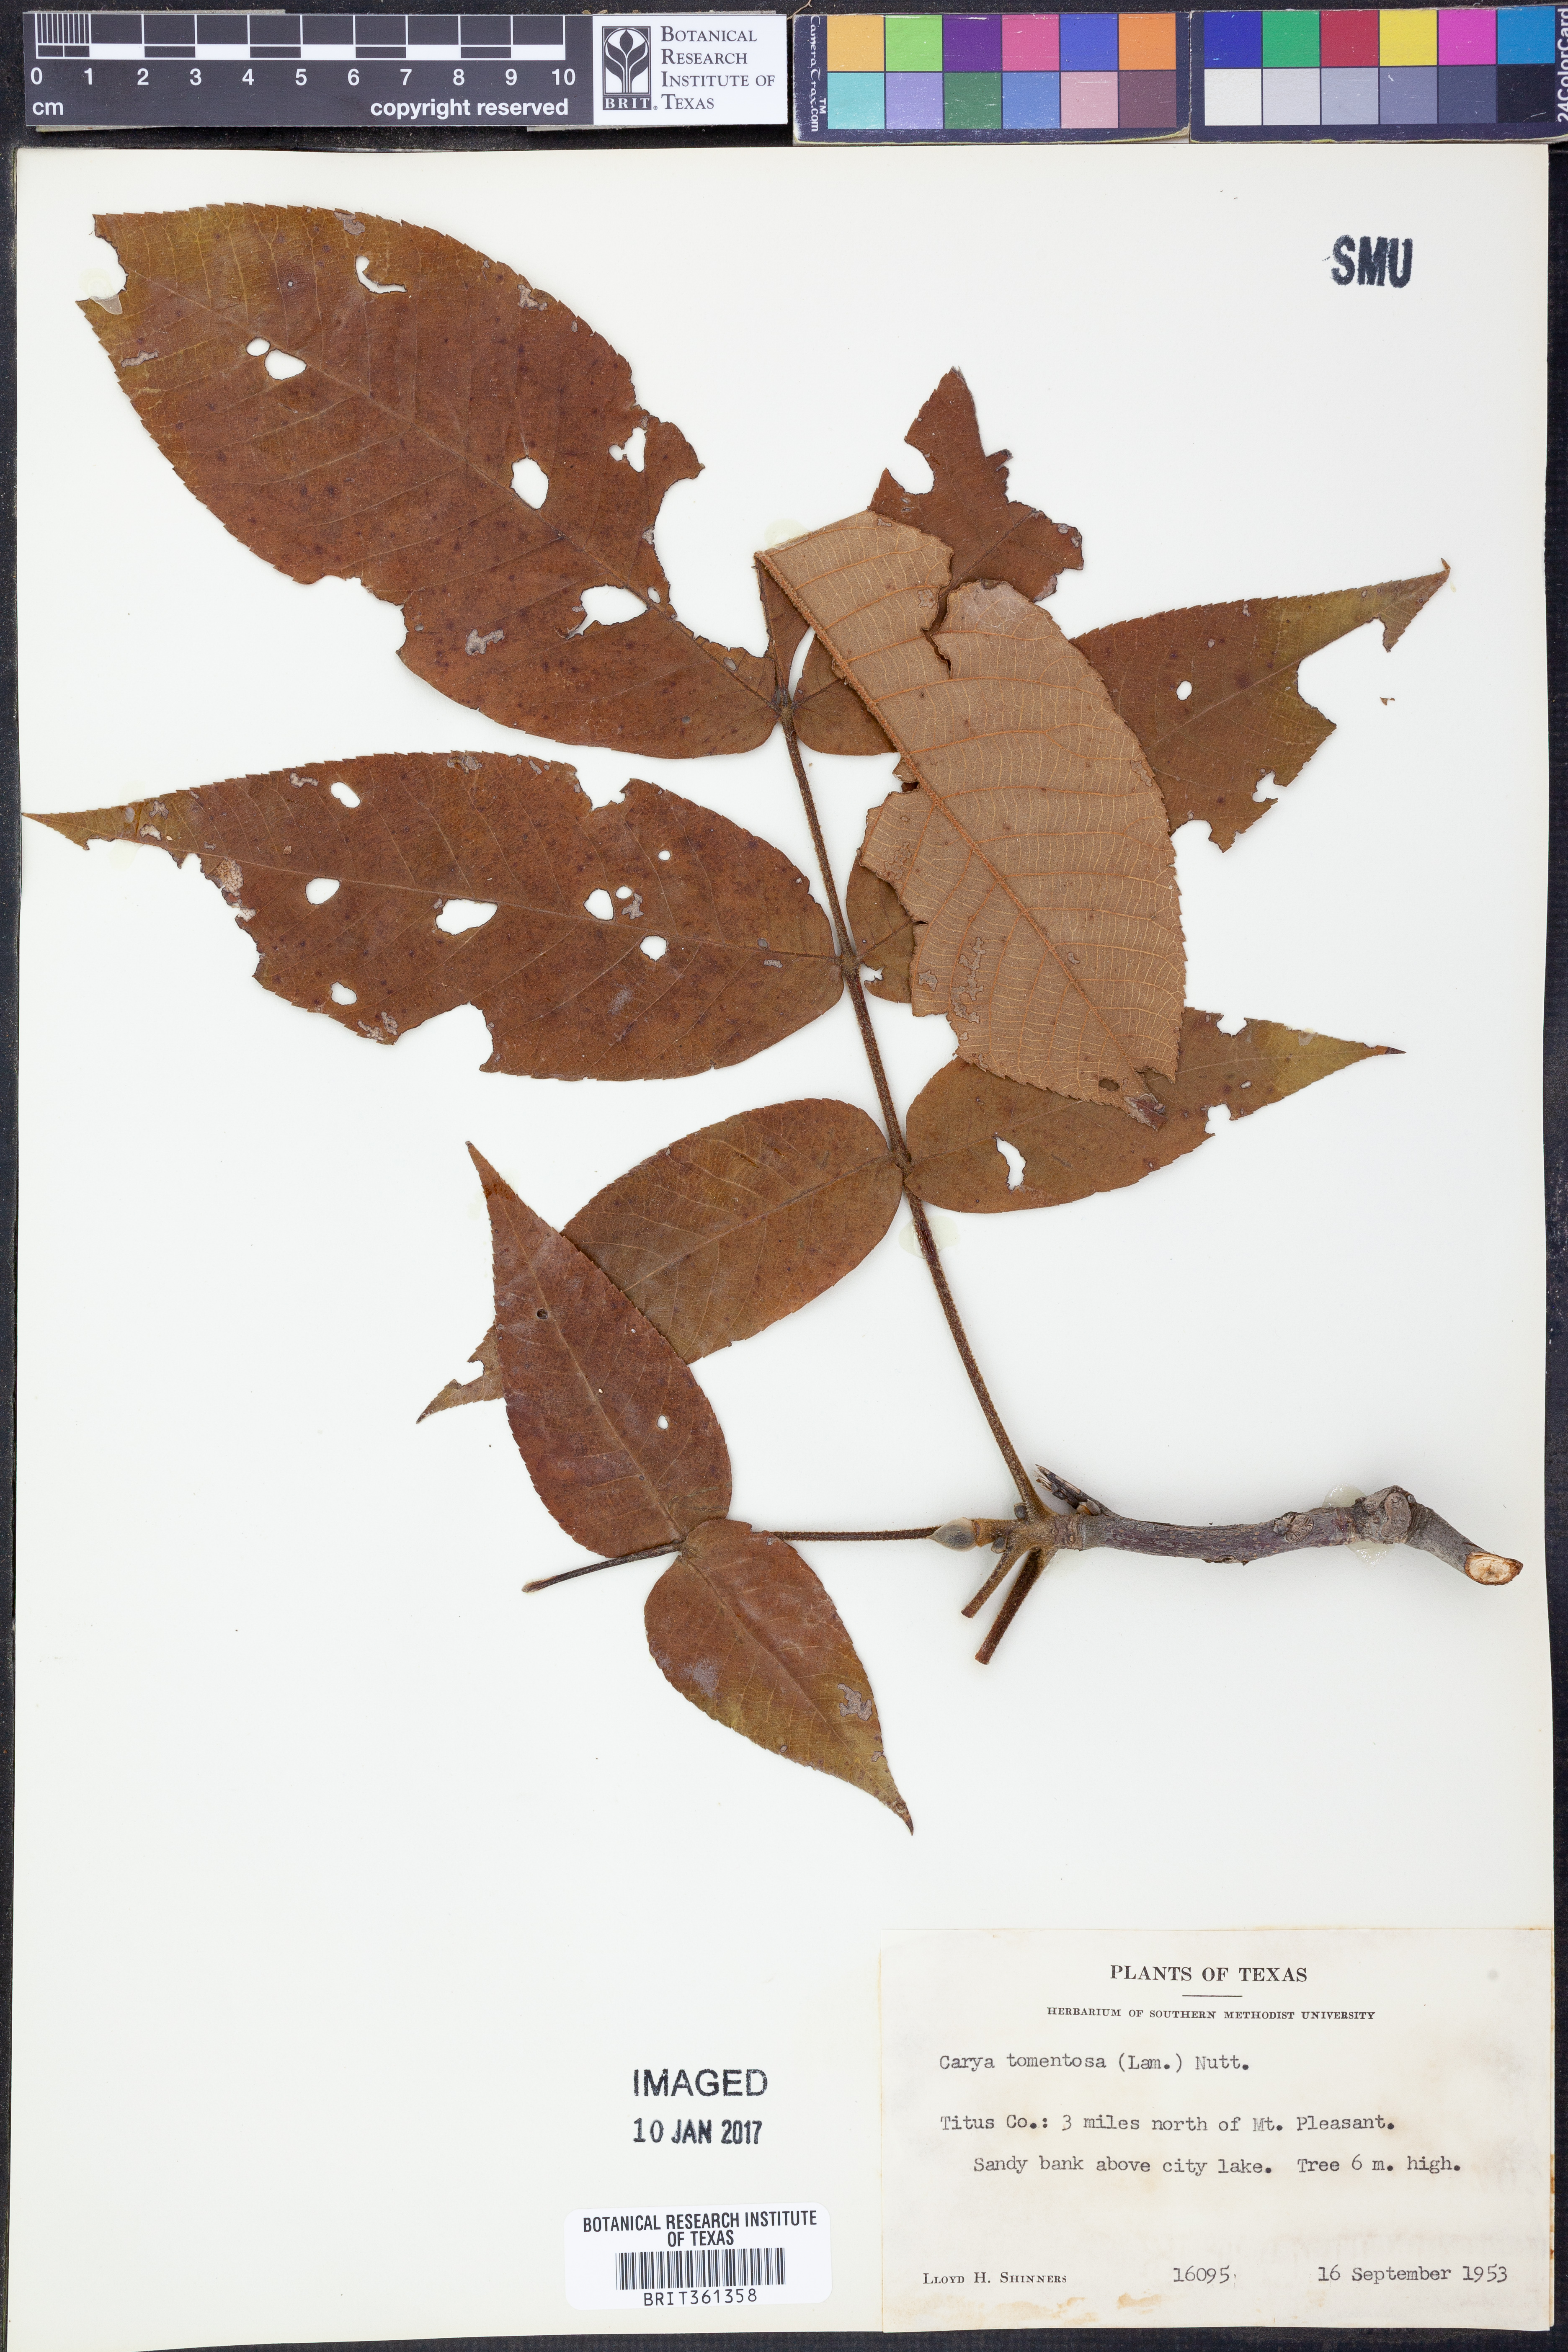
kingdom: Plantae
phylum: Tracheophyta
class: Magnoliopsida
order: Fagales
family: Juglandaceae
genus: Carya
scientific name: Carya alba
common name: Mockernut hickory
